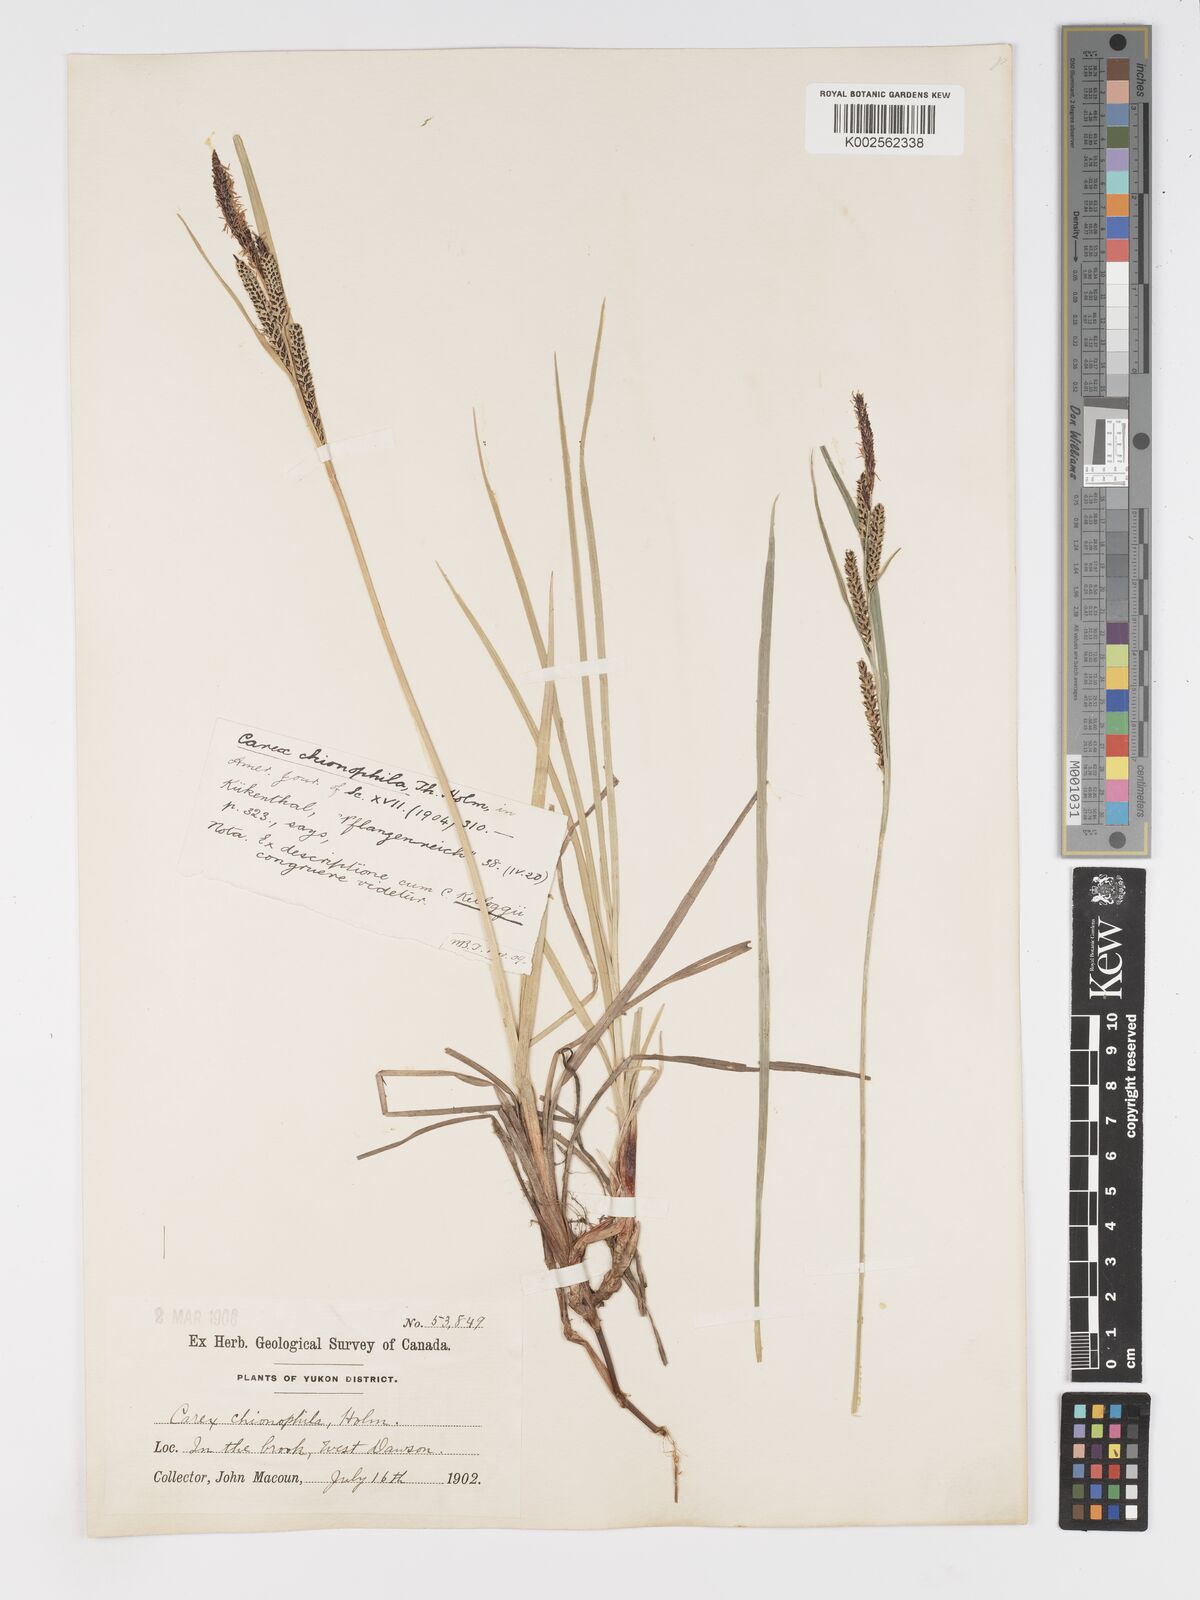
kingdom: Plantae
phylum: Tracheophyta
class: Liliopsida
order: Poales
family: Cyperaceae
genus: Carex
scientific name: Carex aquatilis
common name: Water sedge
